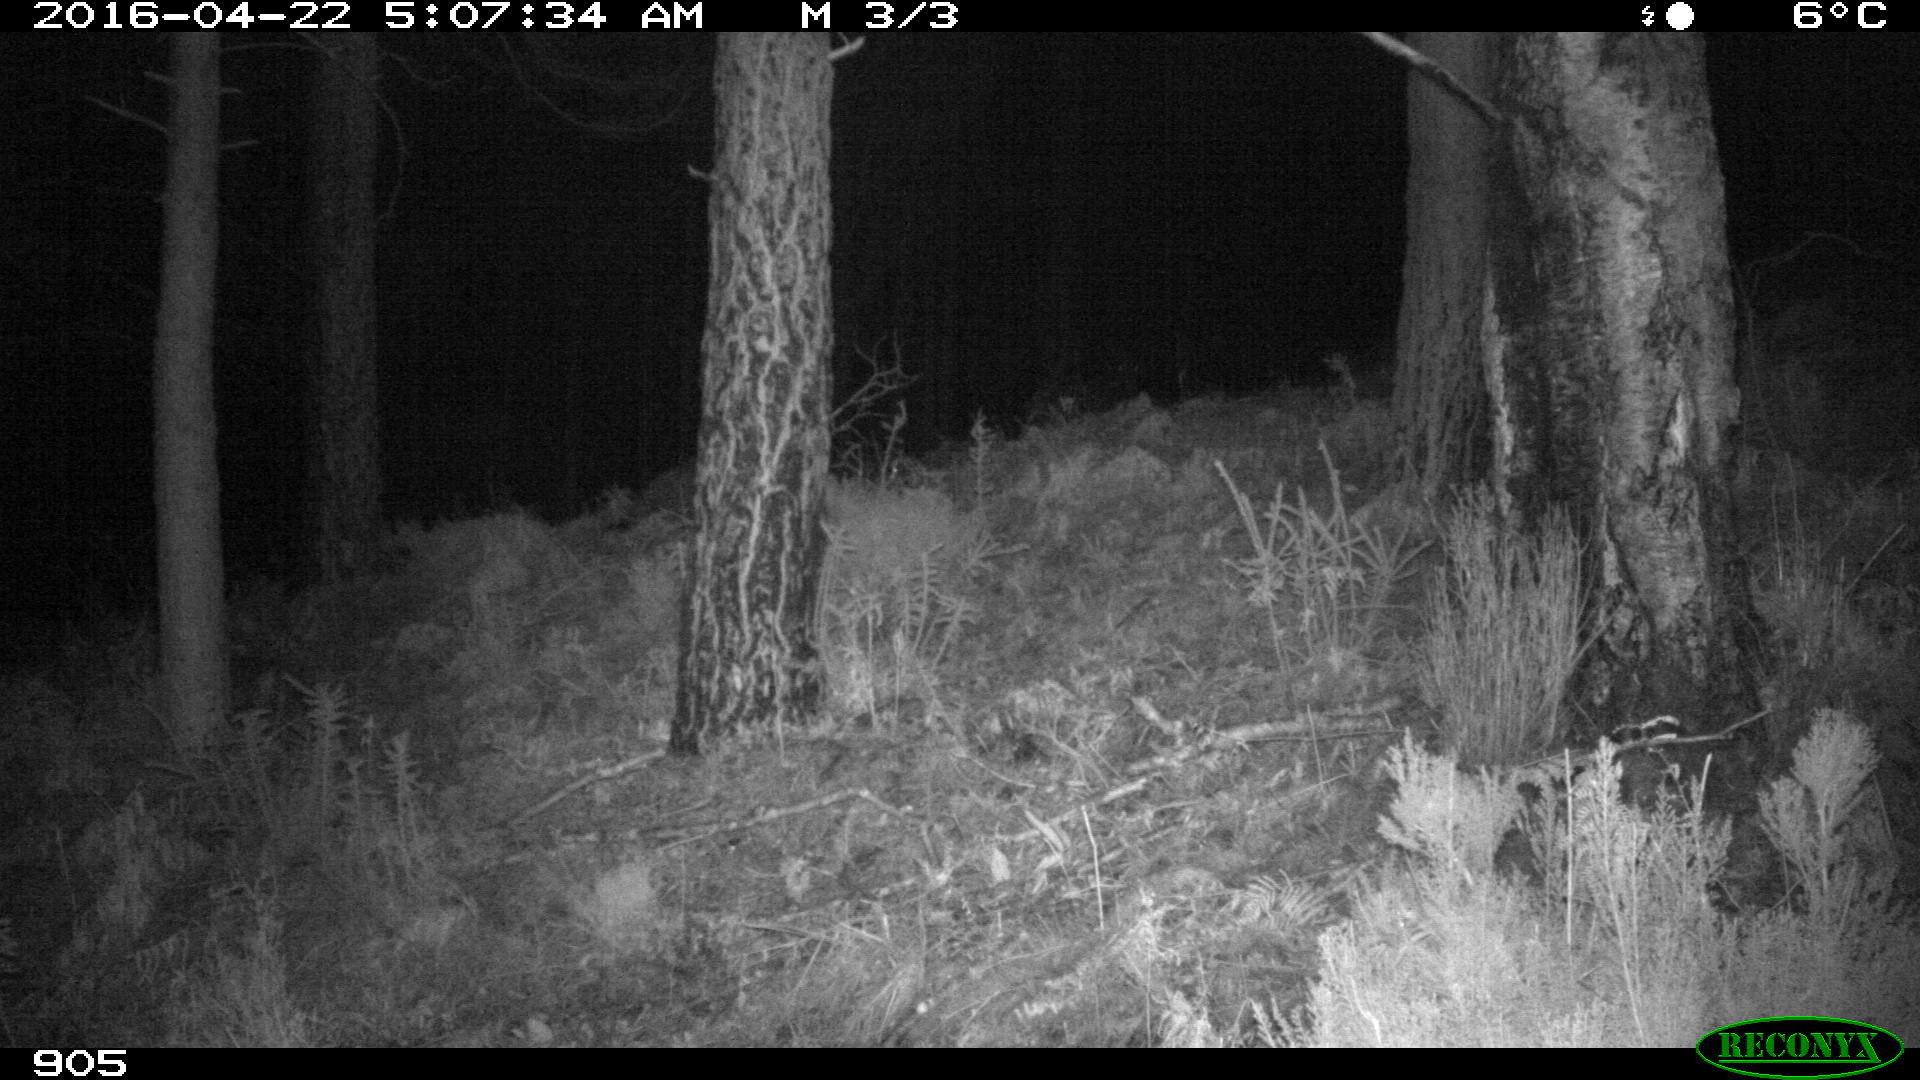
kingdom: Animalia
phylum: Chordata
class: Mammalia
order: Carnivora
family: Canidae
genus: Vulpes
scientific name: Vulpes vulpes
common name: Red fox
